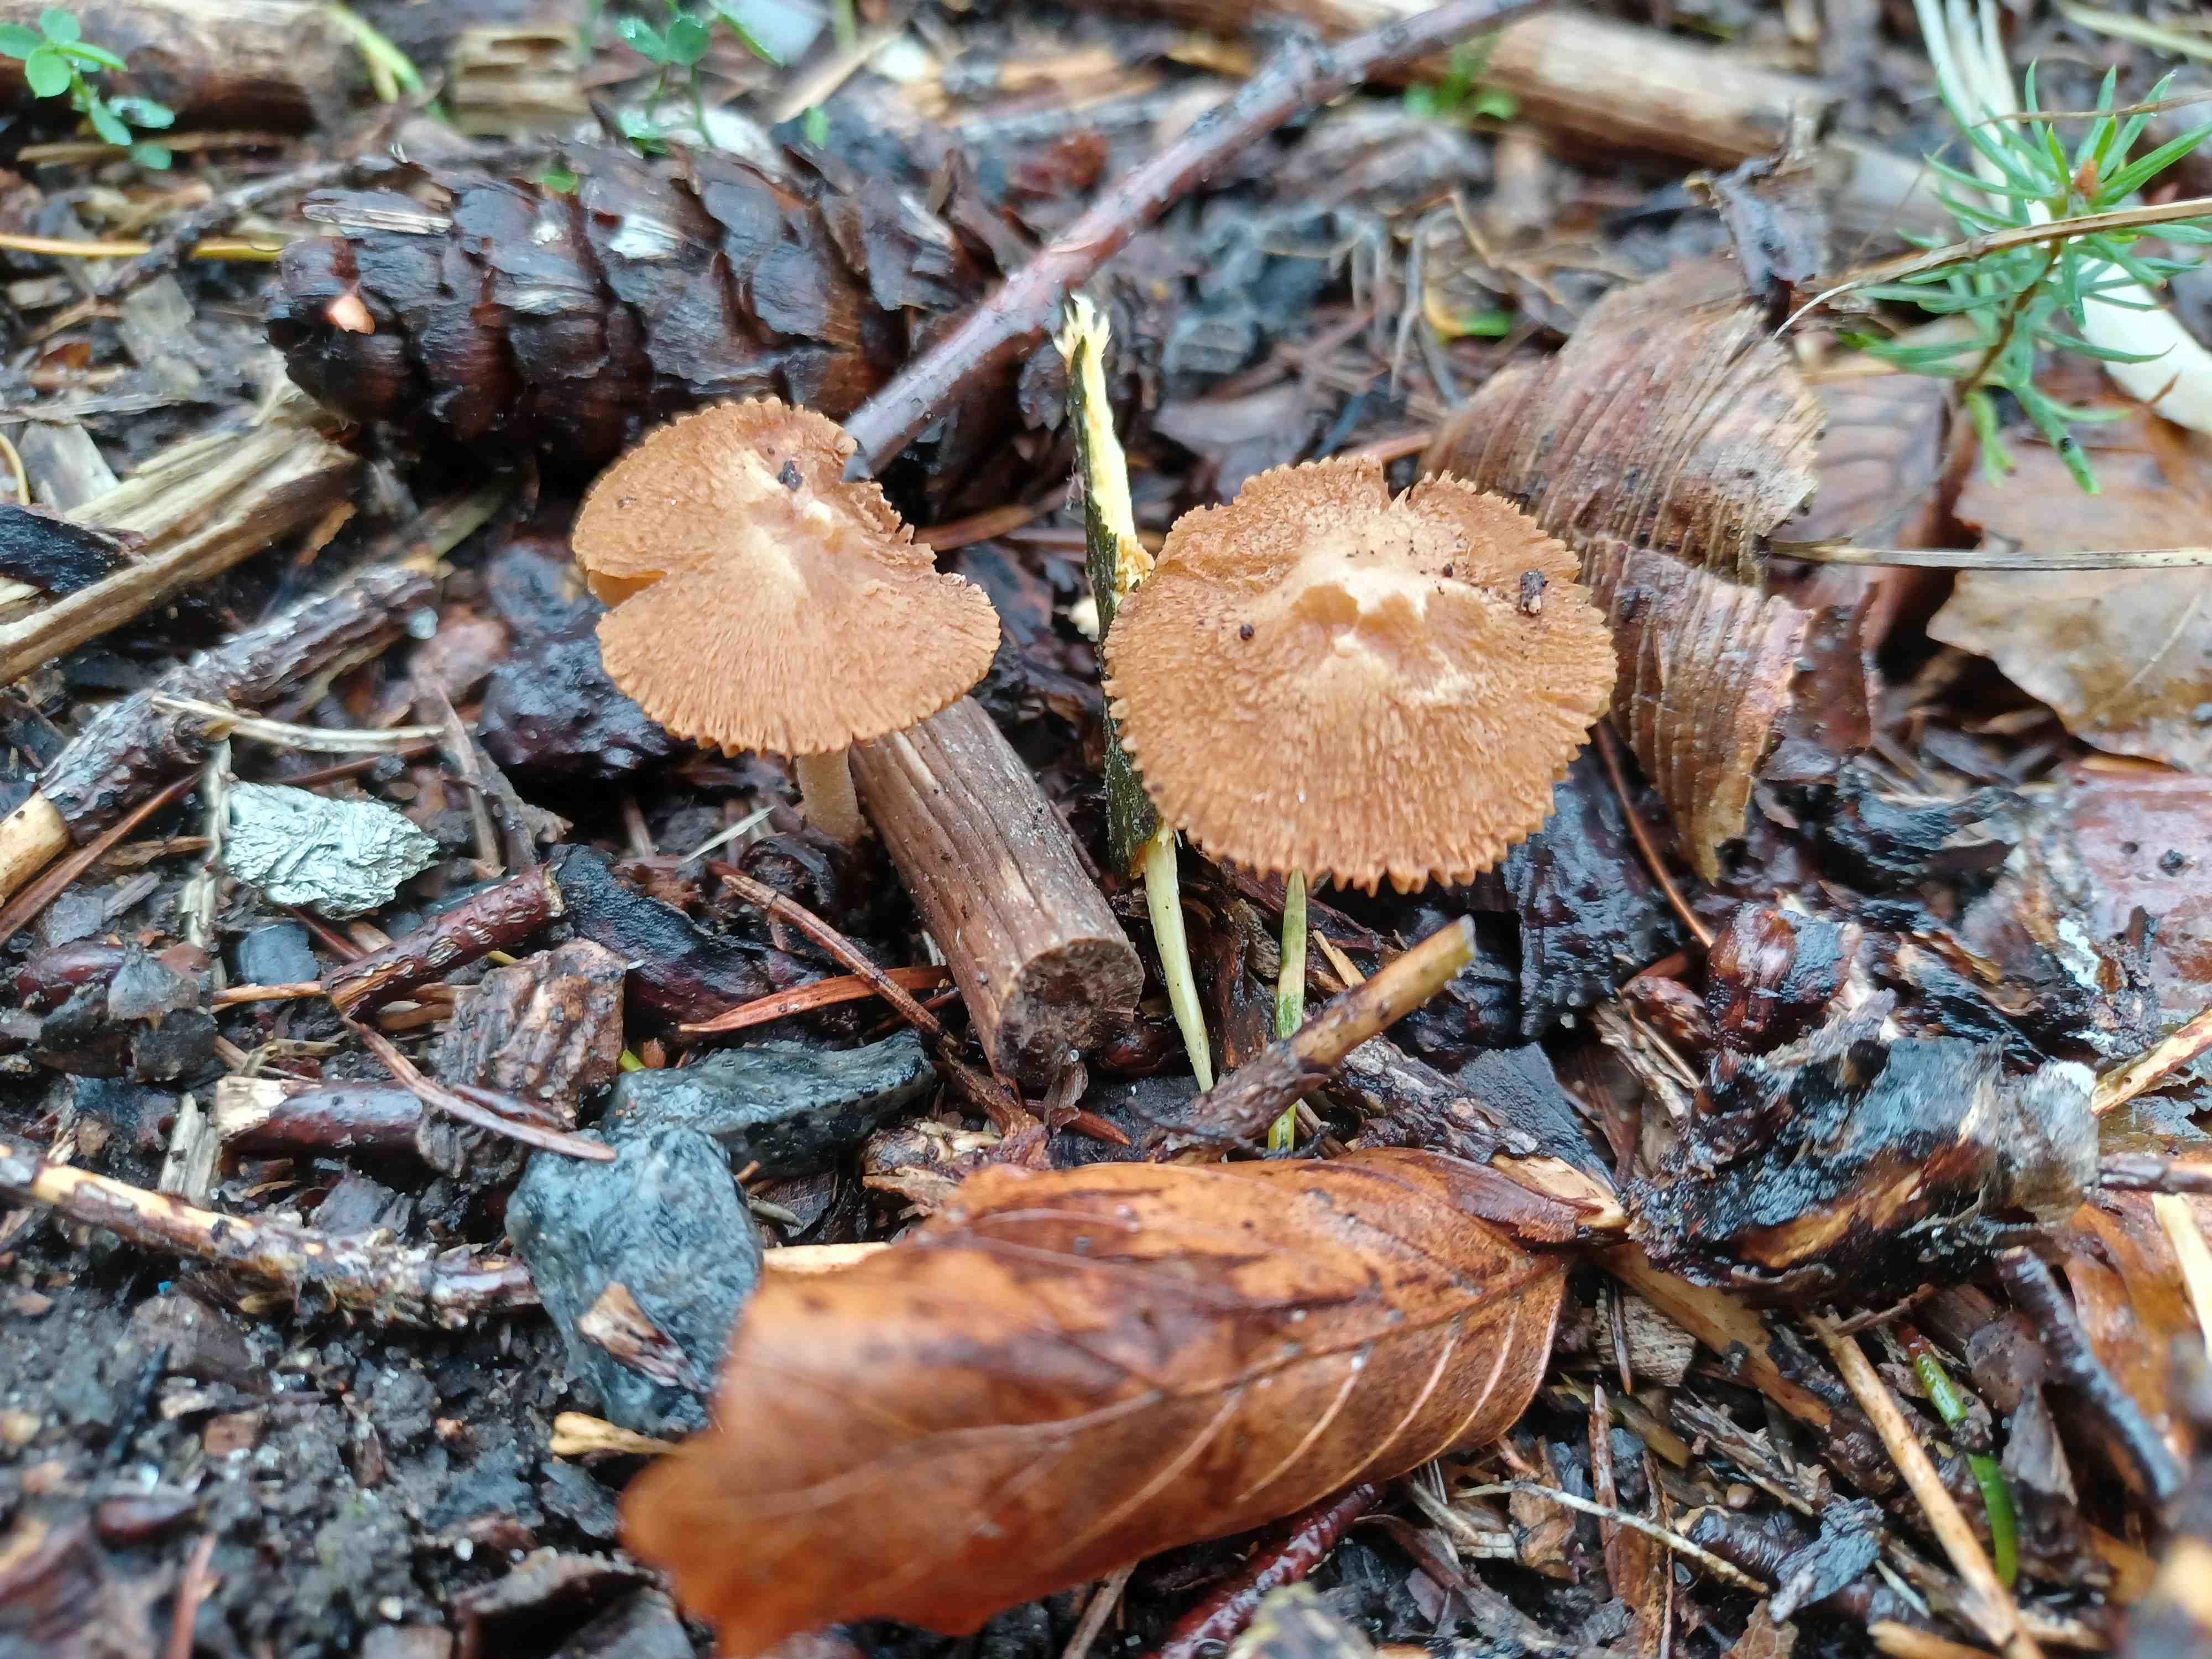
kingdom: Fungi
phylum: Basidiomycota
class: Agaricomycetes
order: Agaricales
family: Inocybaceae
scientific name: Inocybaceae
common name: trævlhatfamilien
